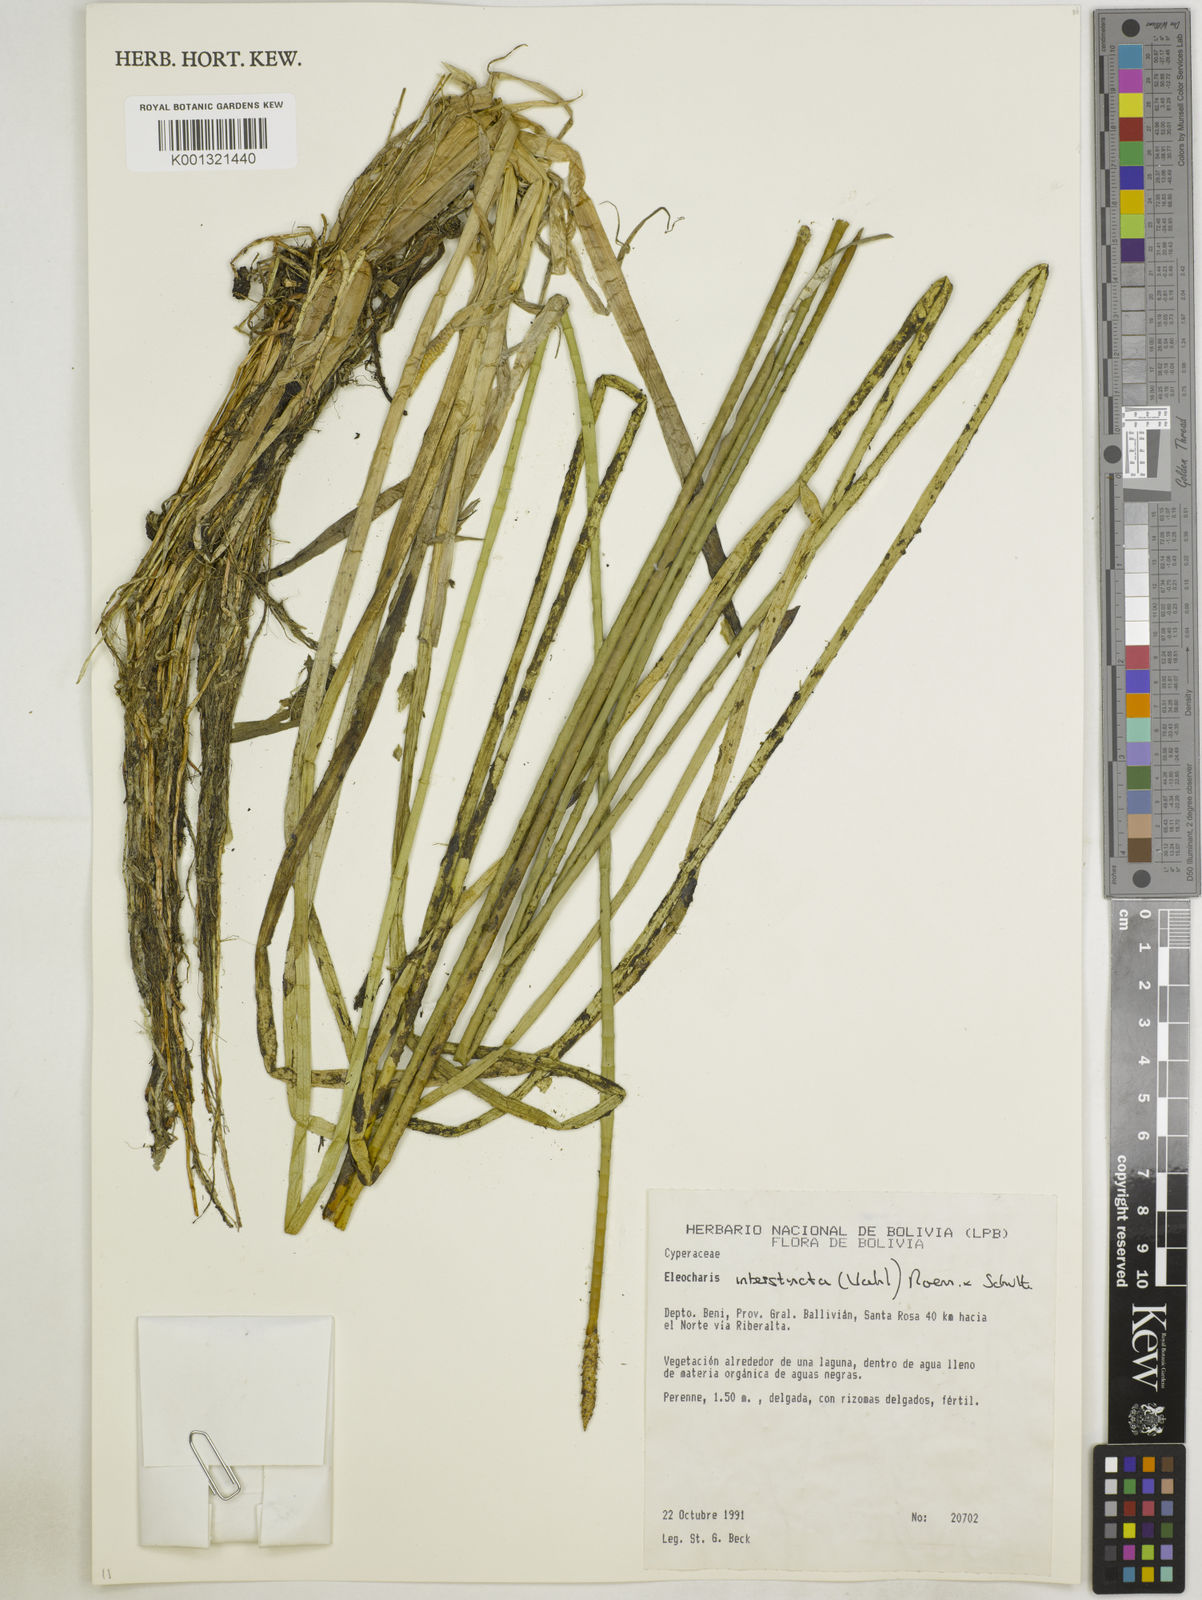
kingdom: Plantae
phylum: Tracheophyta
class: Liliopsida
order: Poales
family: Cyperaceae
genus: Eleocharis
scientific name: Eleocharis interstincta
